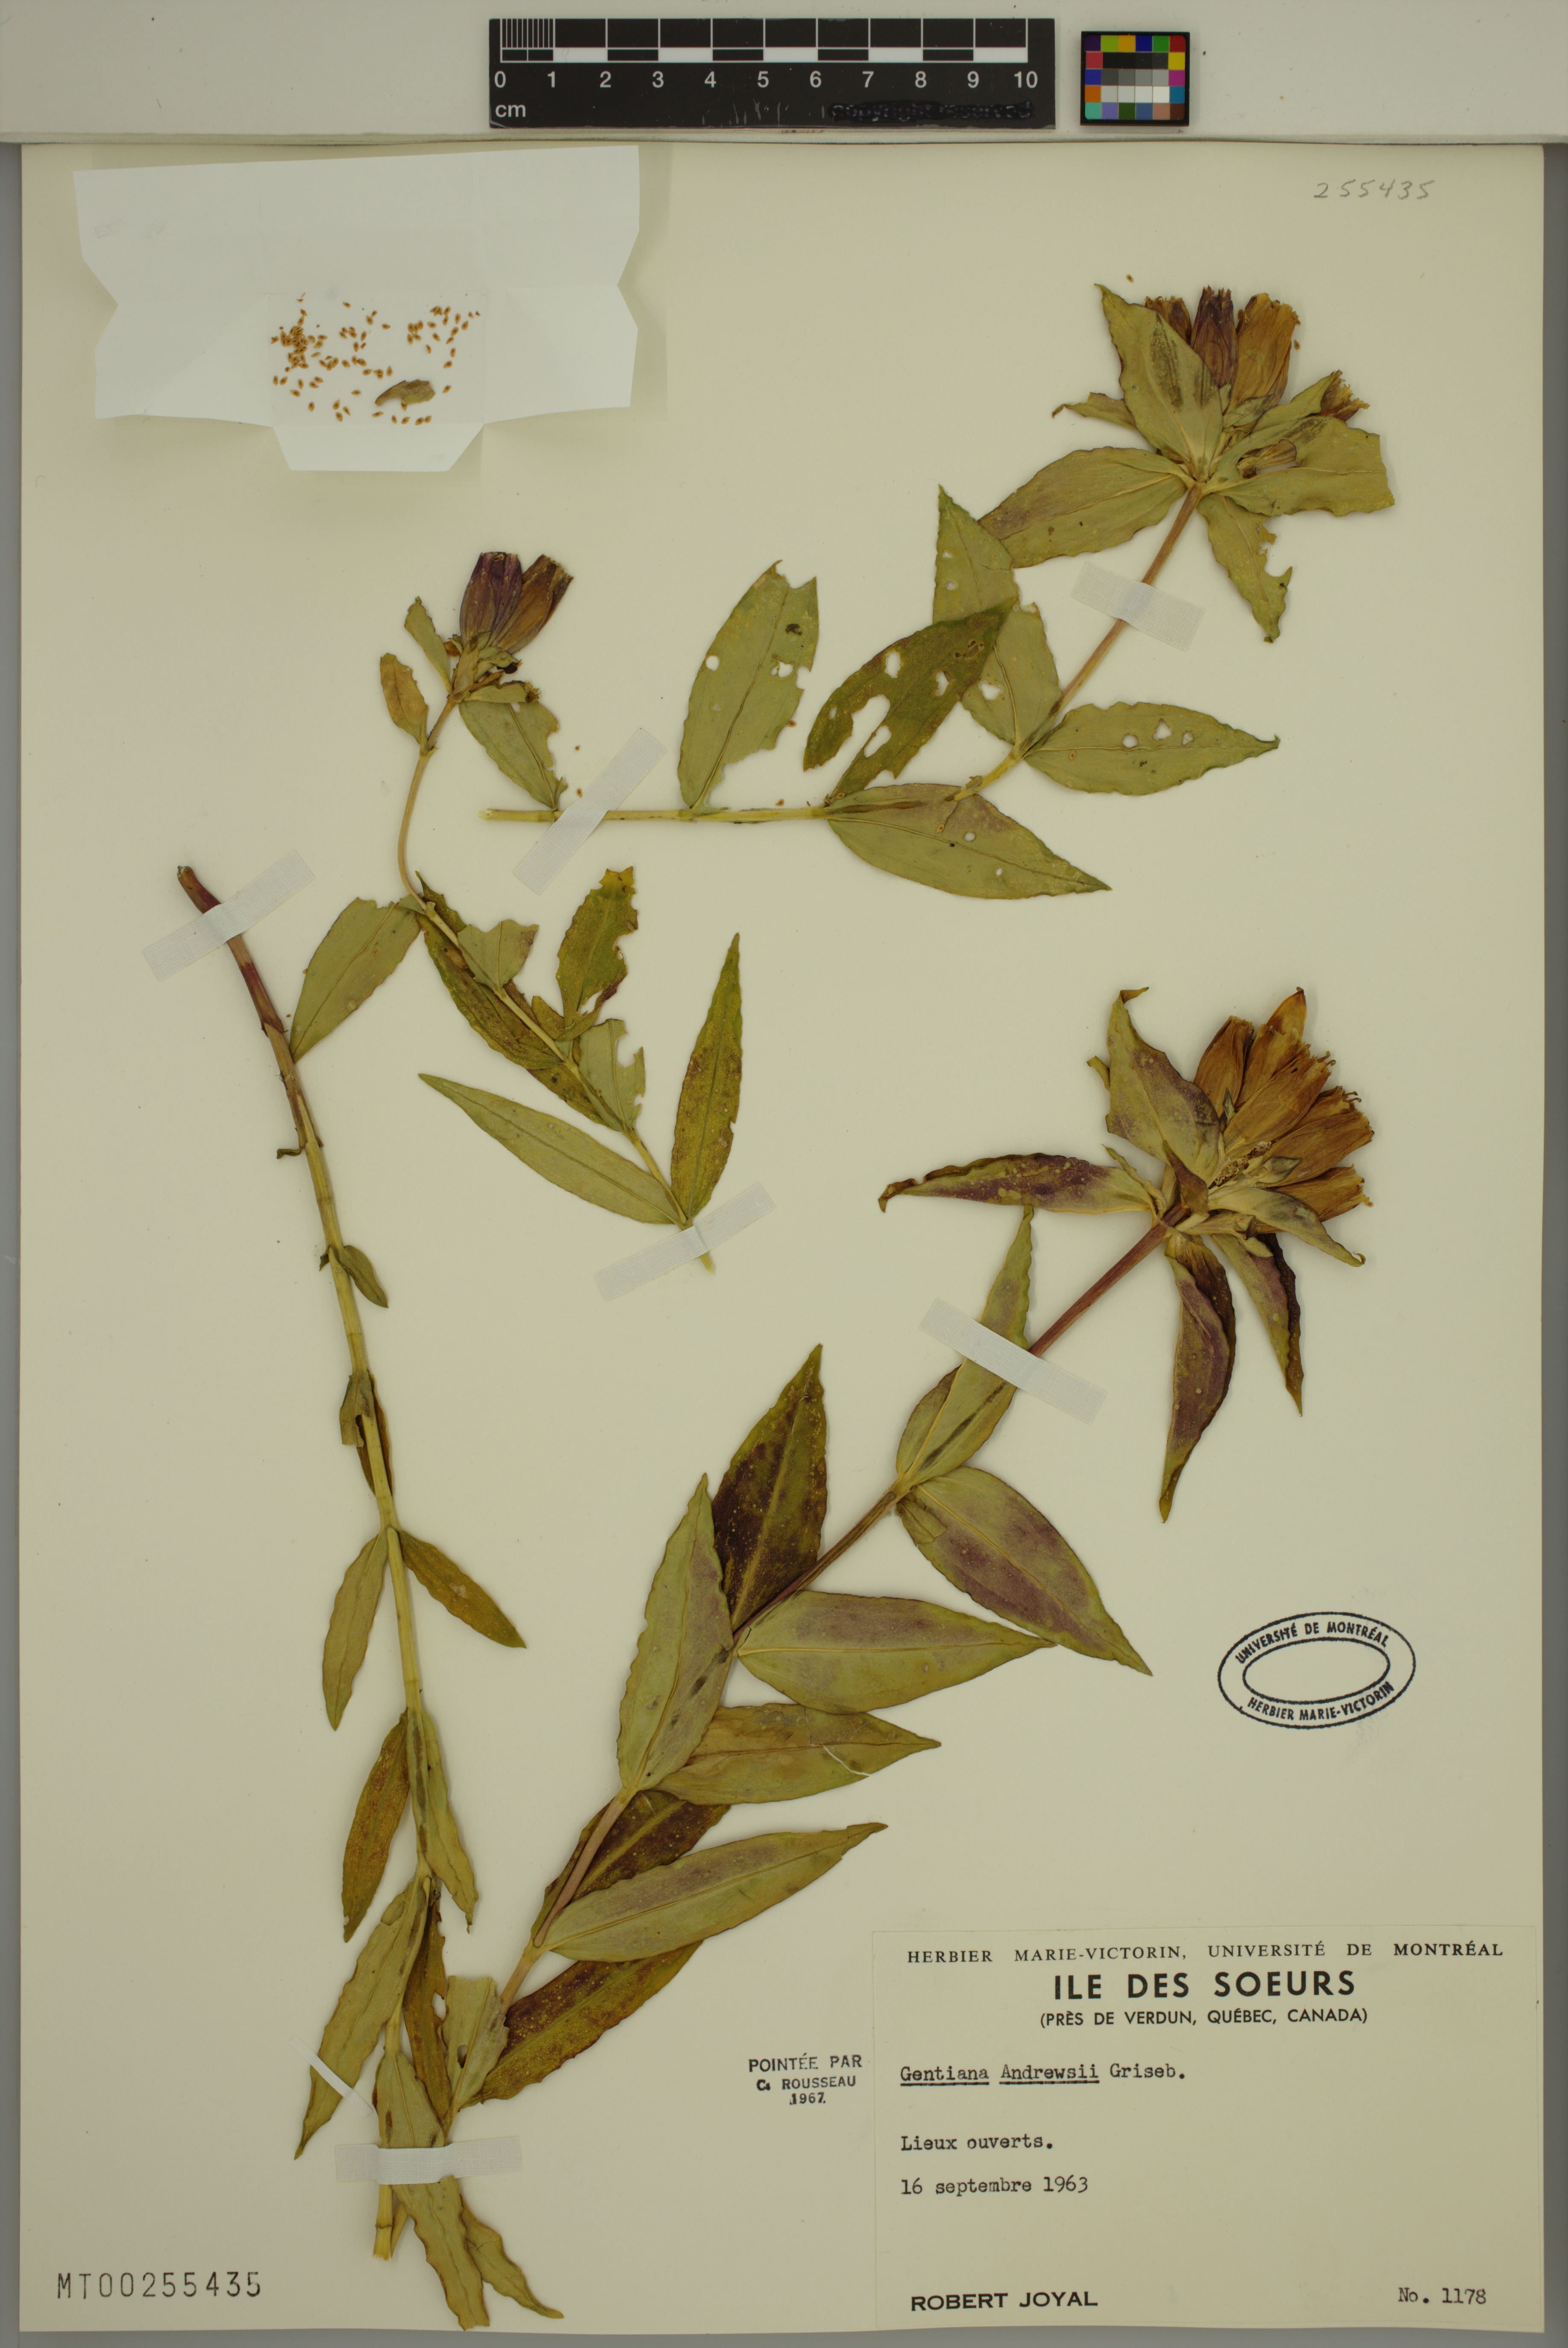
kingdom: Plantae
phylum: Tracheophyta
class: Magnoliopsida
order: Gentianales
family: Gentianaceae
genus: Gentiana
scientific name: Gentiana andrewsii
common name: Bottle gentian
